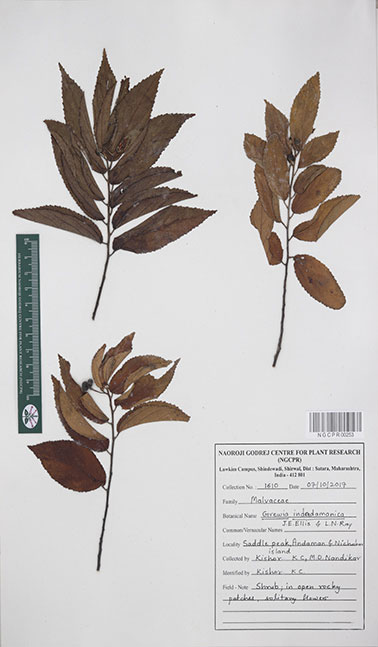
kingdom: Plantae
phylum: Tracheophyta
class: Magnoliopsida
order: Malvales
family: Malvaceae
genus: Grewia
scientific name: Grewia indandamanica
